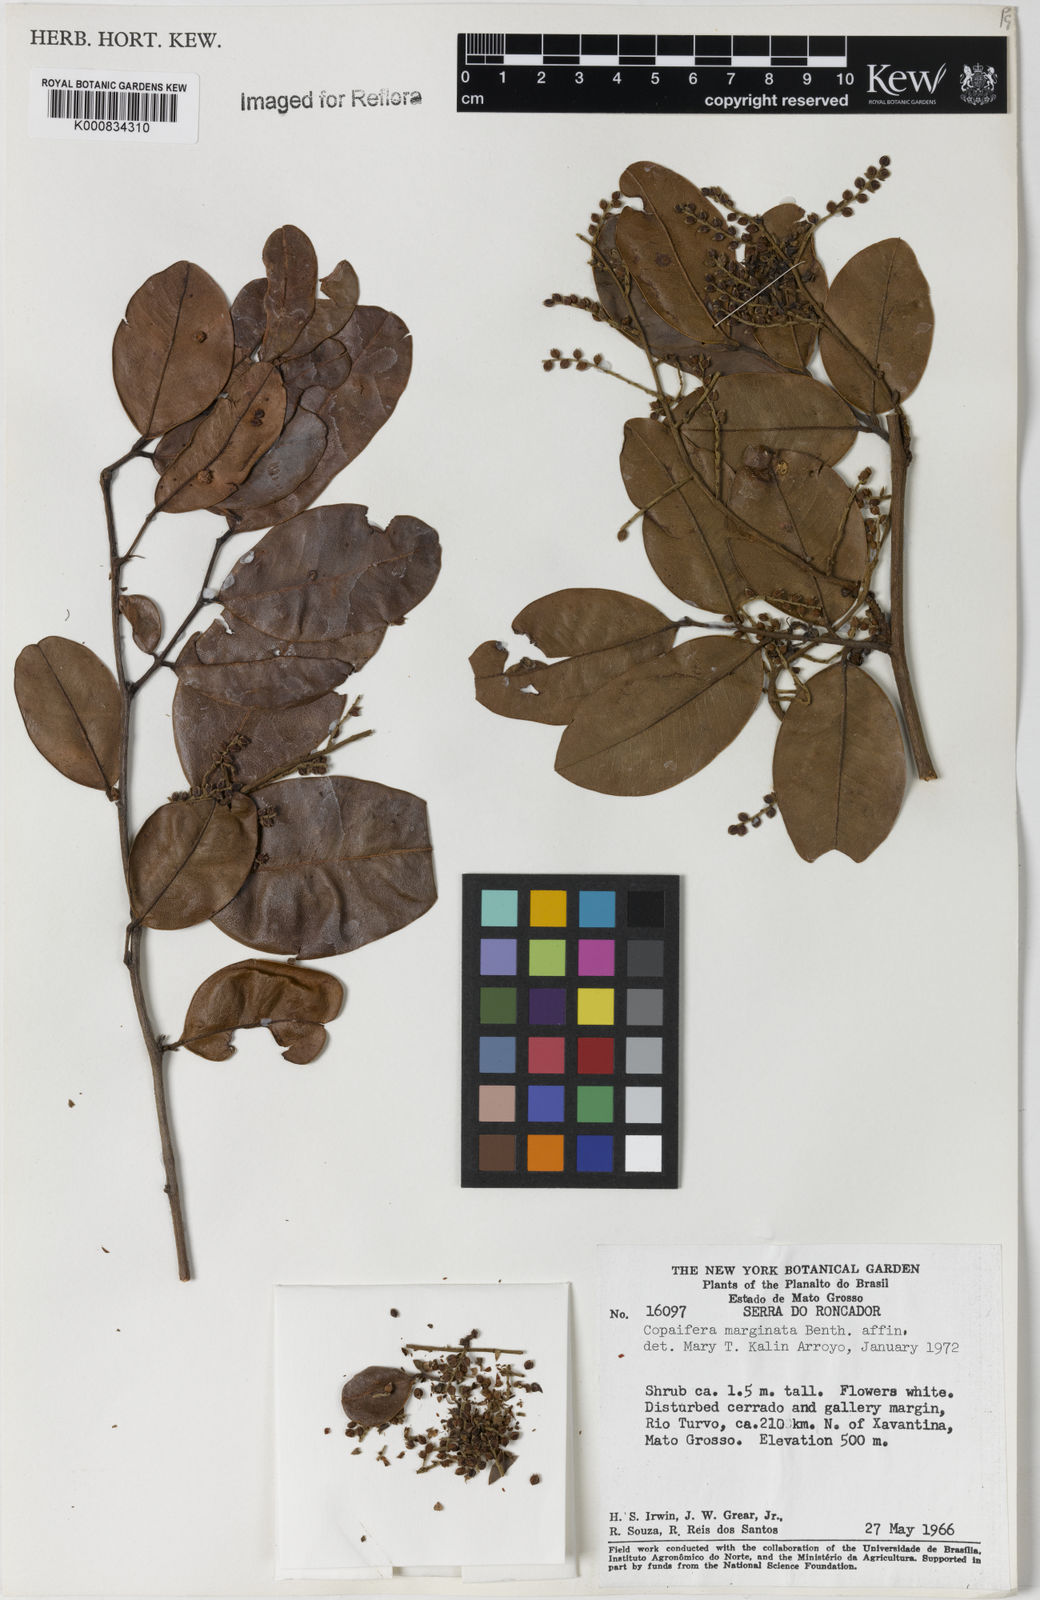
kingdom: Plantae
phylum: Tracheophyta
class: Magnoliopsida
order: Fabales
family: Fabaceae
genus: Copaifera
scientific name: Copaifera marginata
